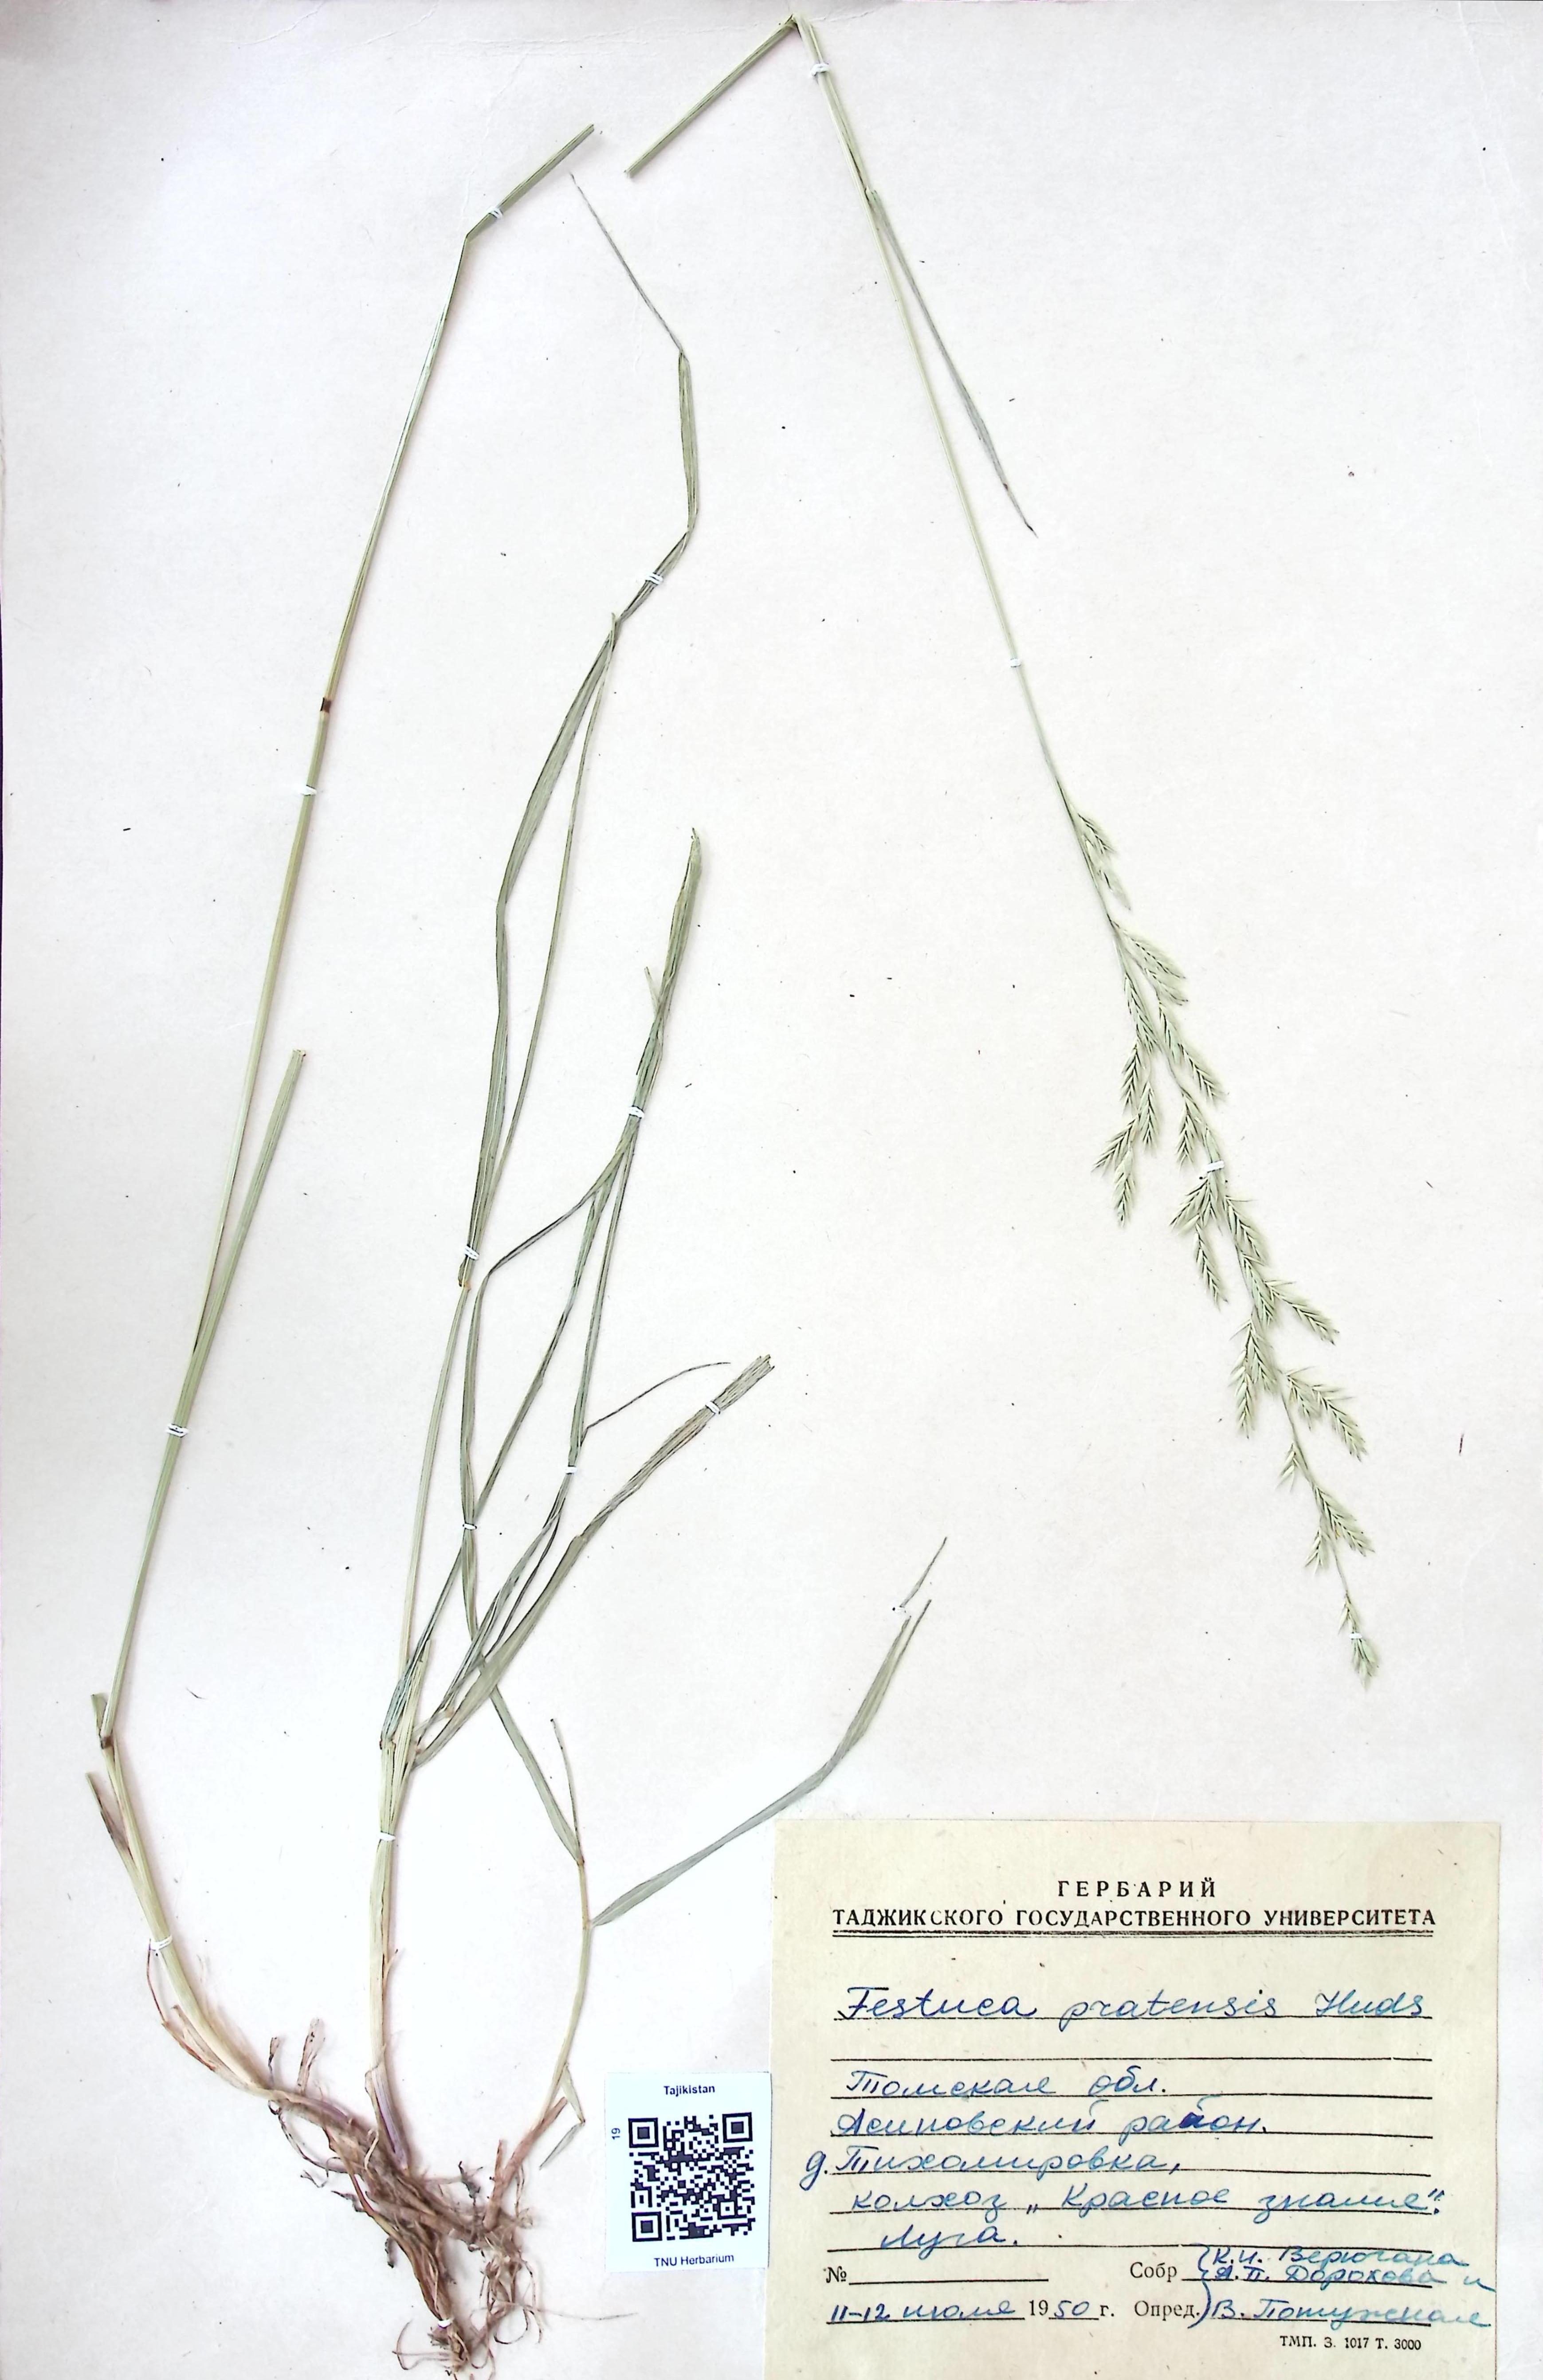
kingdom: Plantae
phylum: Tracheophyta
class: Liliopsida
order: Poales
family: Poaceae
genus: Lolium
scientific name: Lolium pratense
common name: Dover grass
